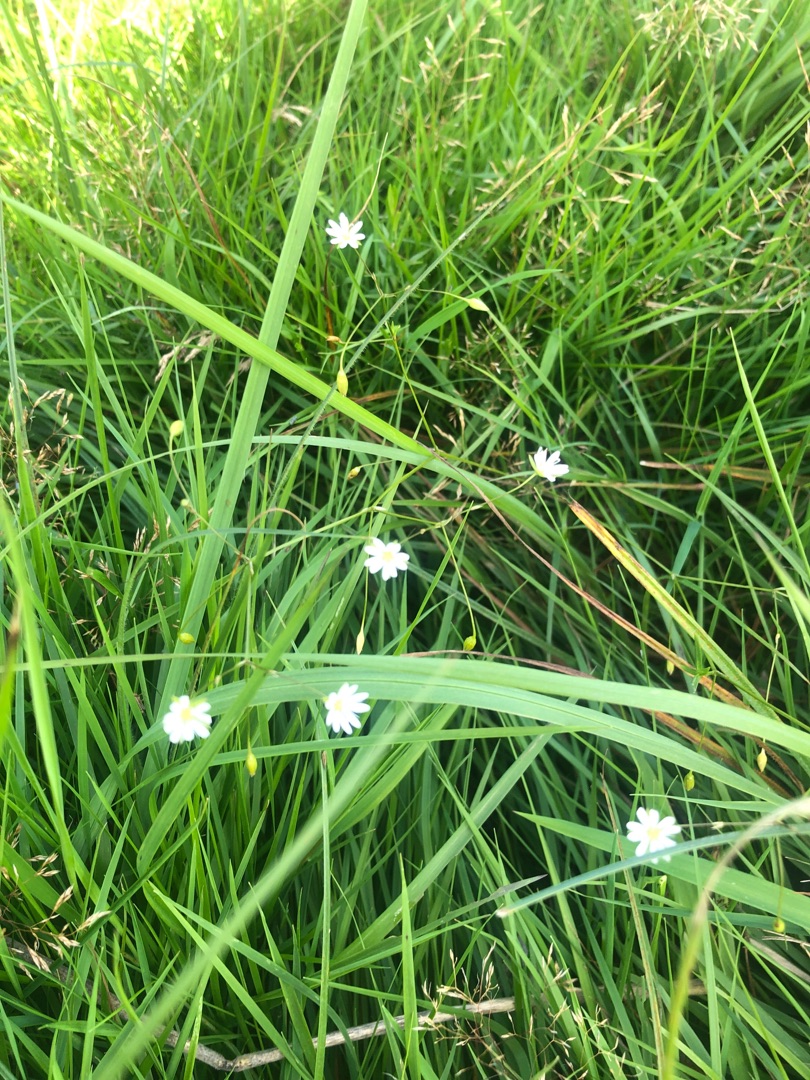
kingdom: Plantae
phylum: Tracheophyta
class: Magnoliopsida
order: Caryophyllales
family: Caryophyllaceae
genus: Stellaria
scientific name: Stellaria graminea
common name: Græsbladet fladstjerne
